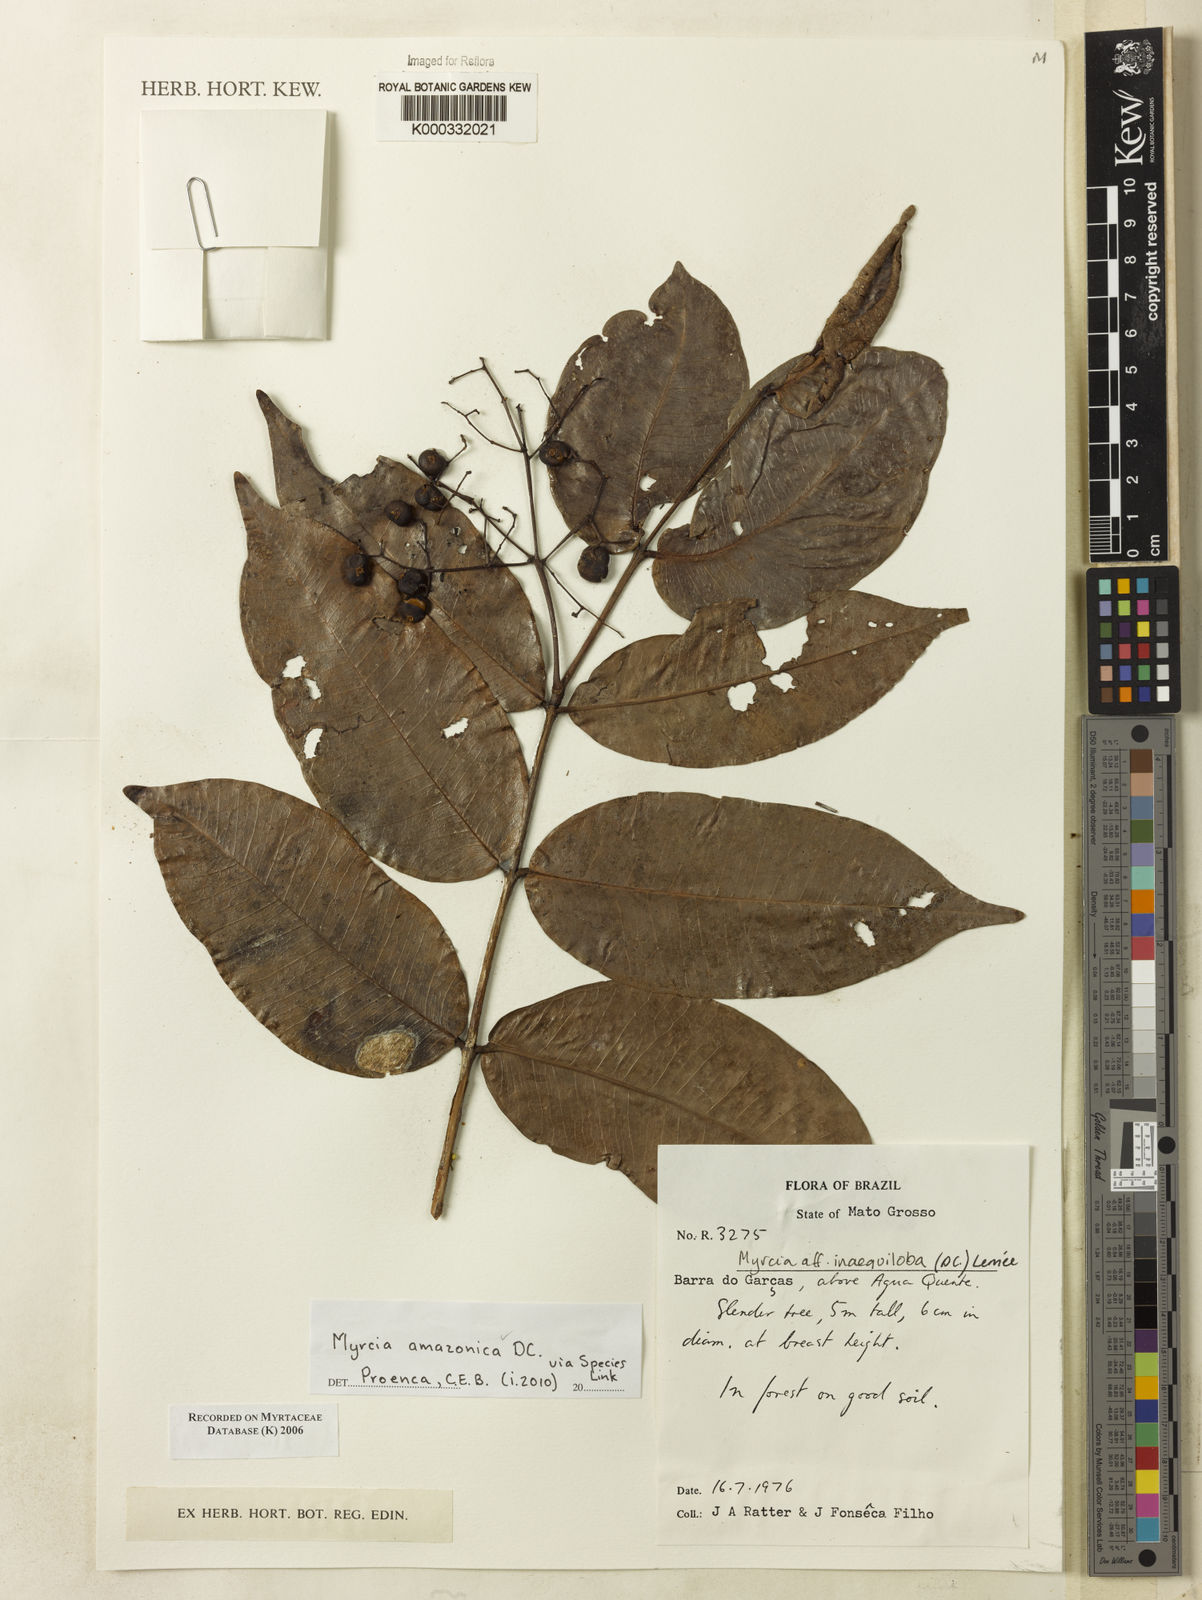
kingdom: Plantae
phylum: Tracheophyta
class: Magnoliopsida
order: Myrtales
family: Myrtaceae
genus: Myrcia
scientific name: Myrcia
